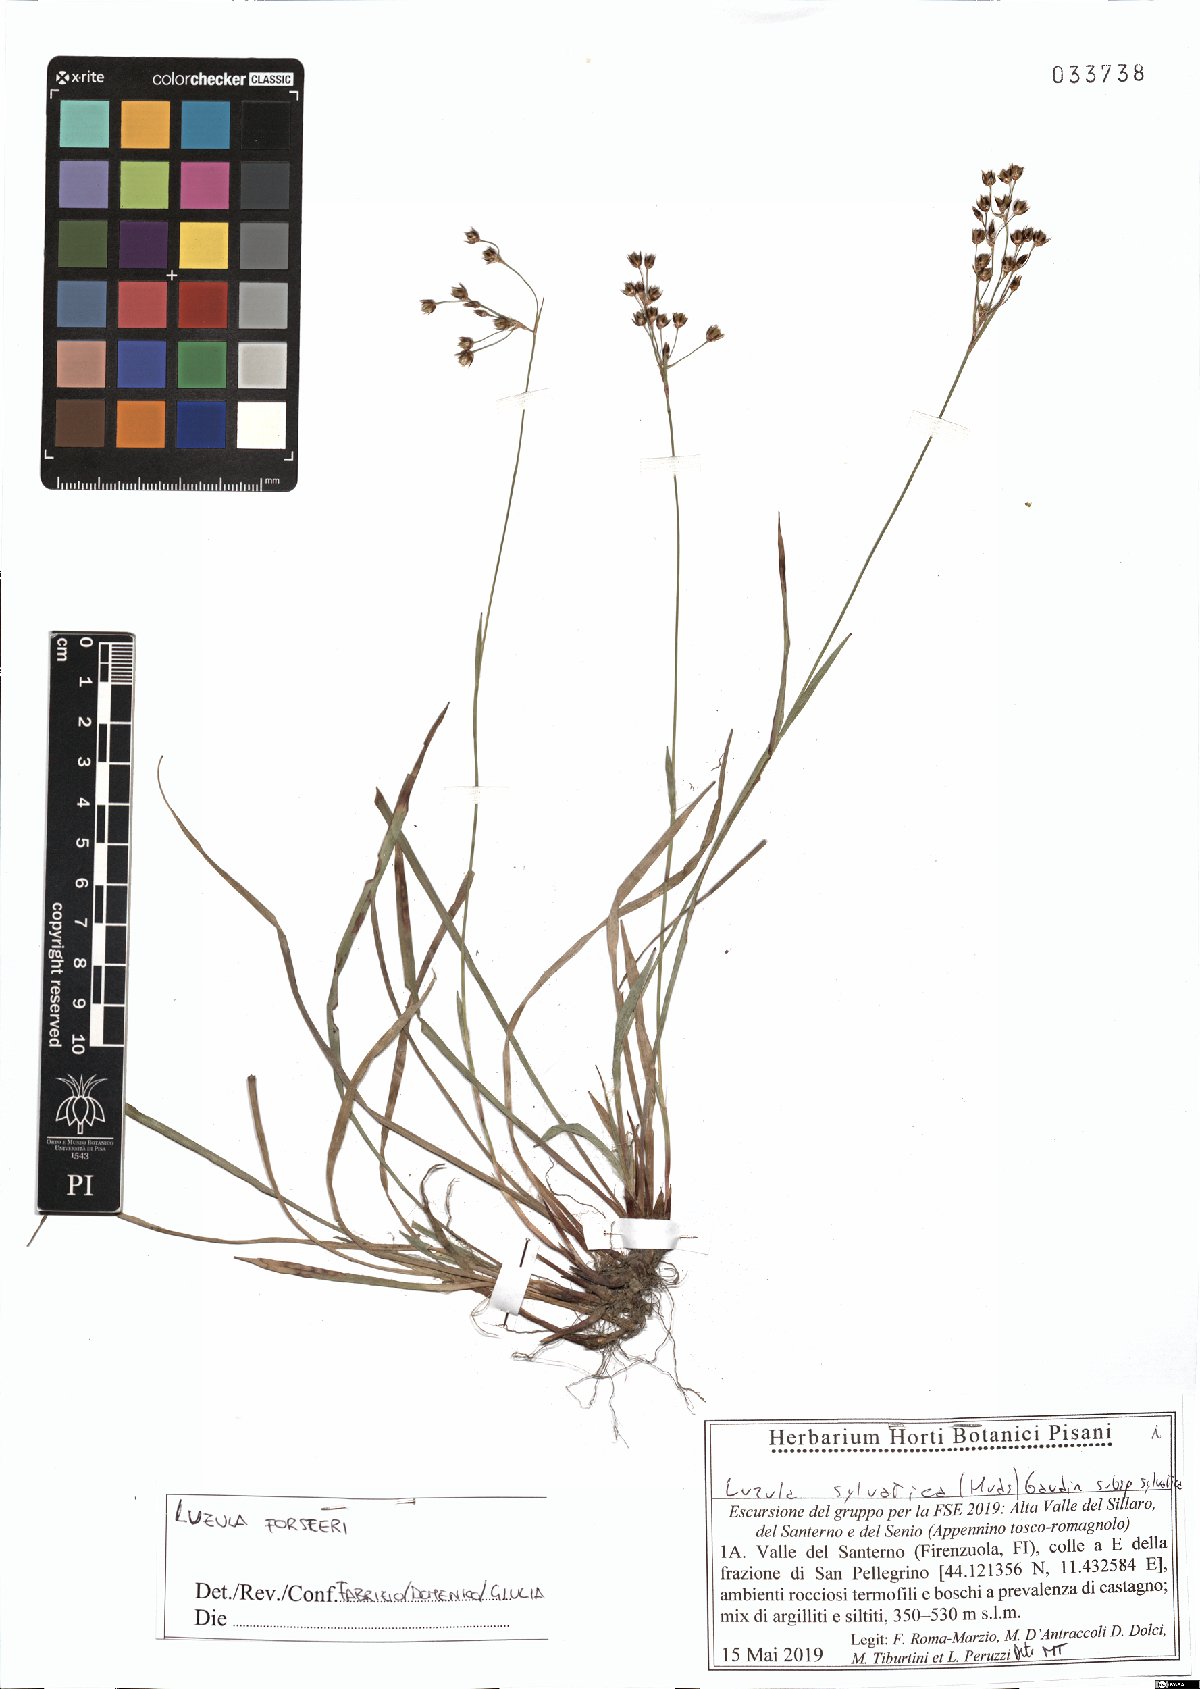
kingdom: Plantae
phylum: Tracheophyta
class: Liliopsida
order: Poales
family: Juncaceae
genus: Luzula
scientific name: Luzula forsteri
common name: Southern wood-rush
